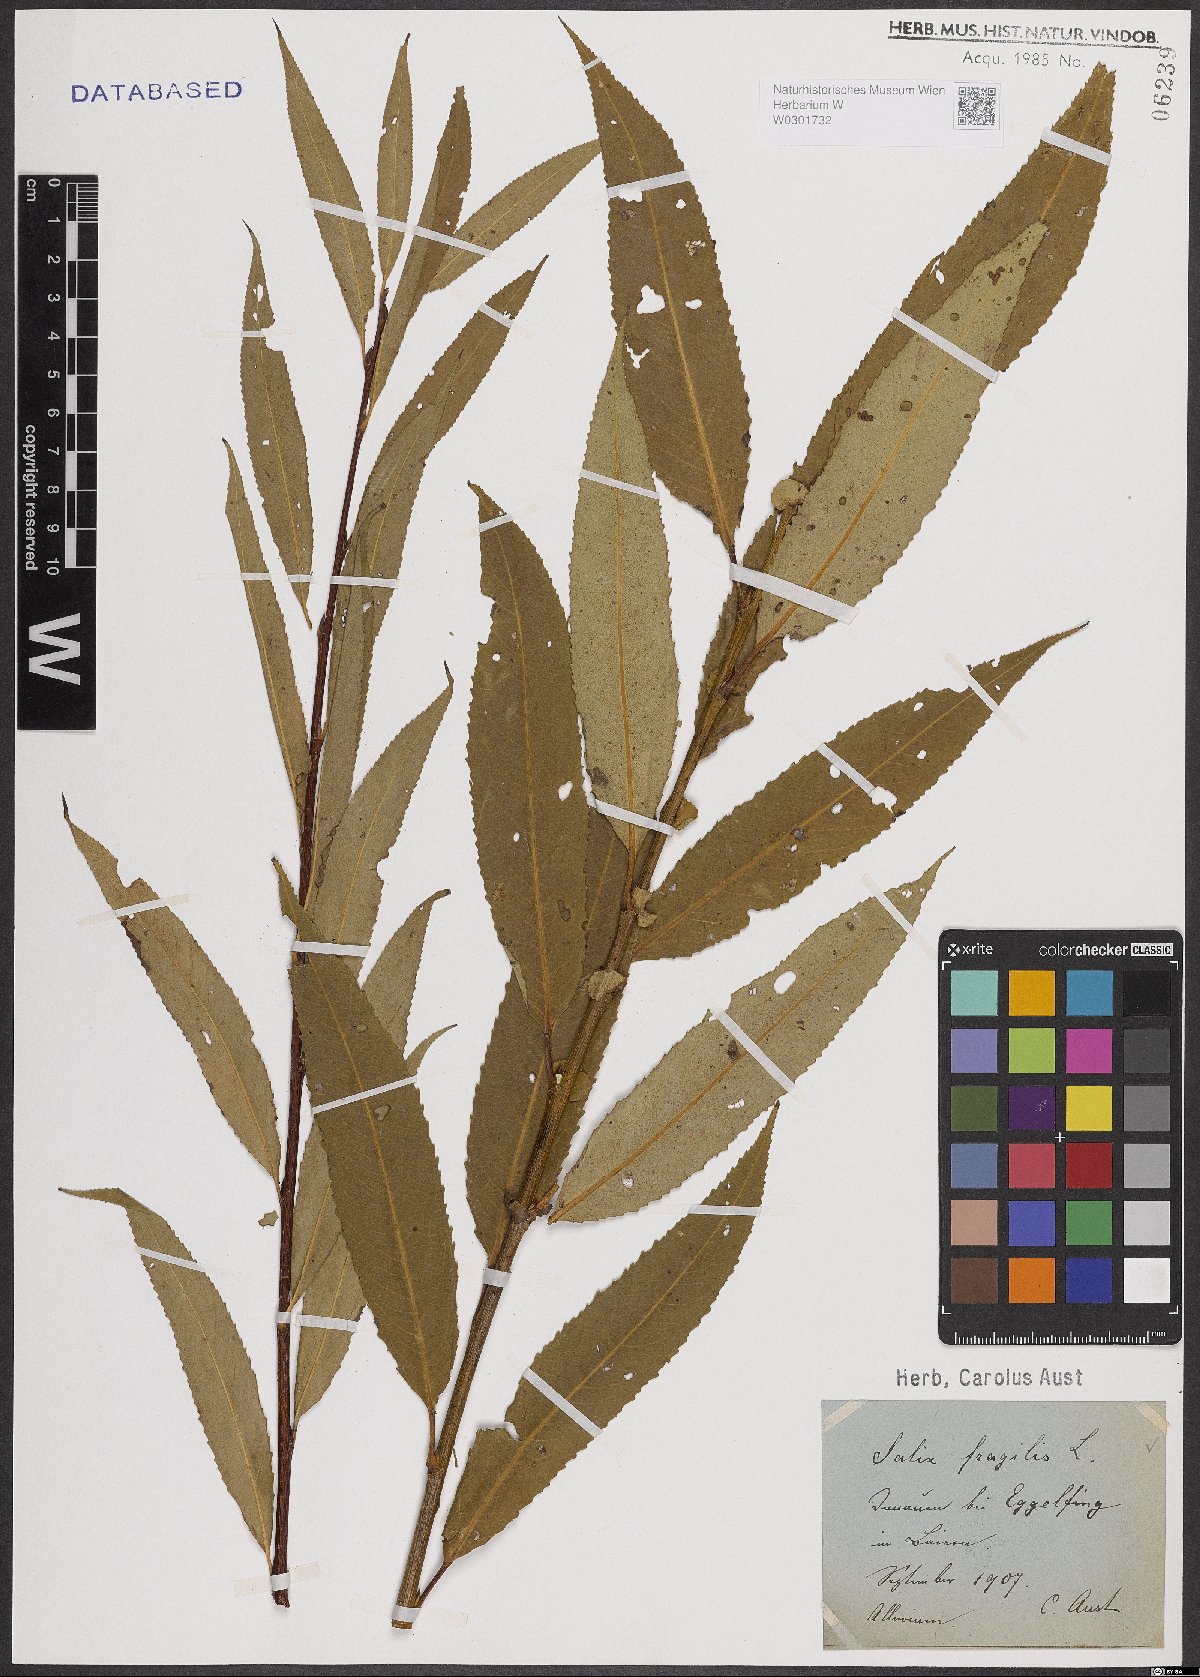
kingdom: Plantae
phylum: Tracheophyta
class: Magnoliopsida
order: Malpighiales
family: Salicaceae
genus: Salix
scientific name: Salix fragilis
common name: Crack willow
